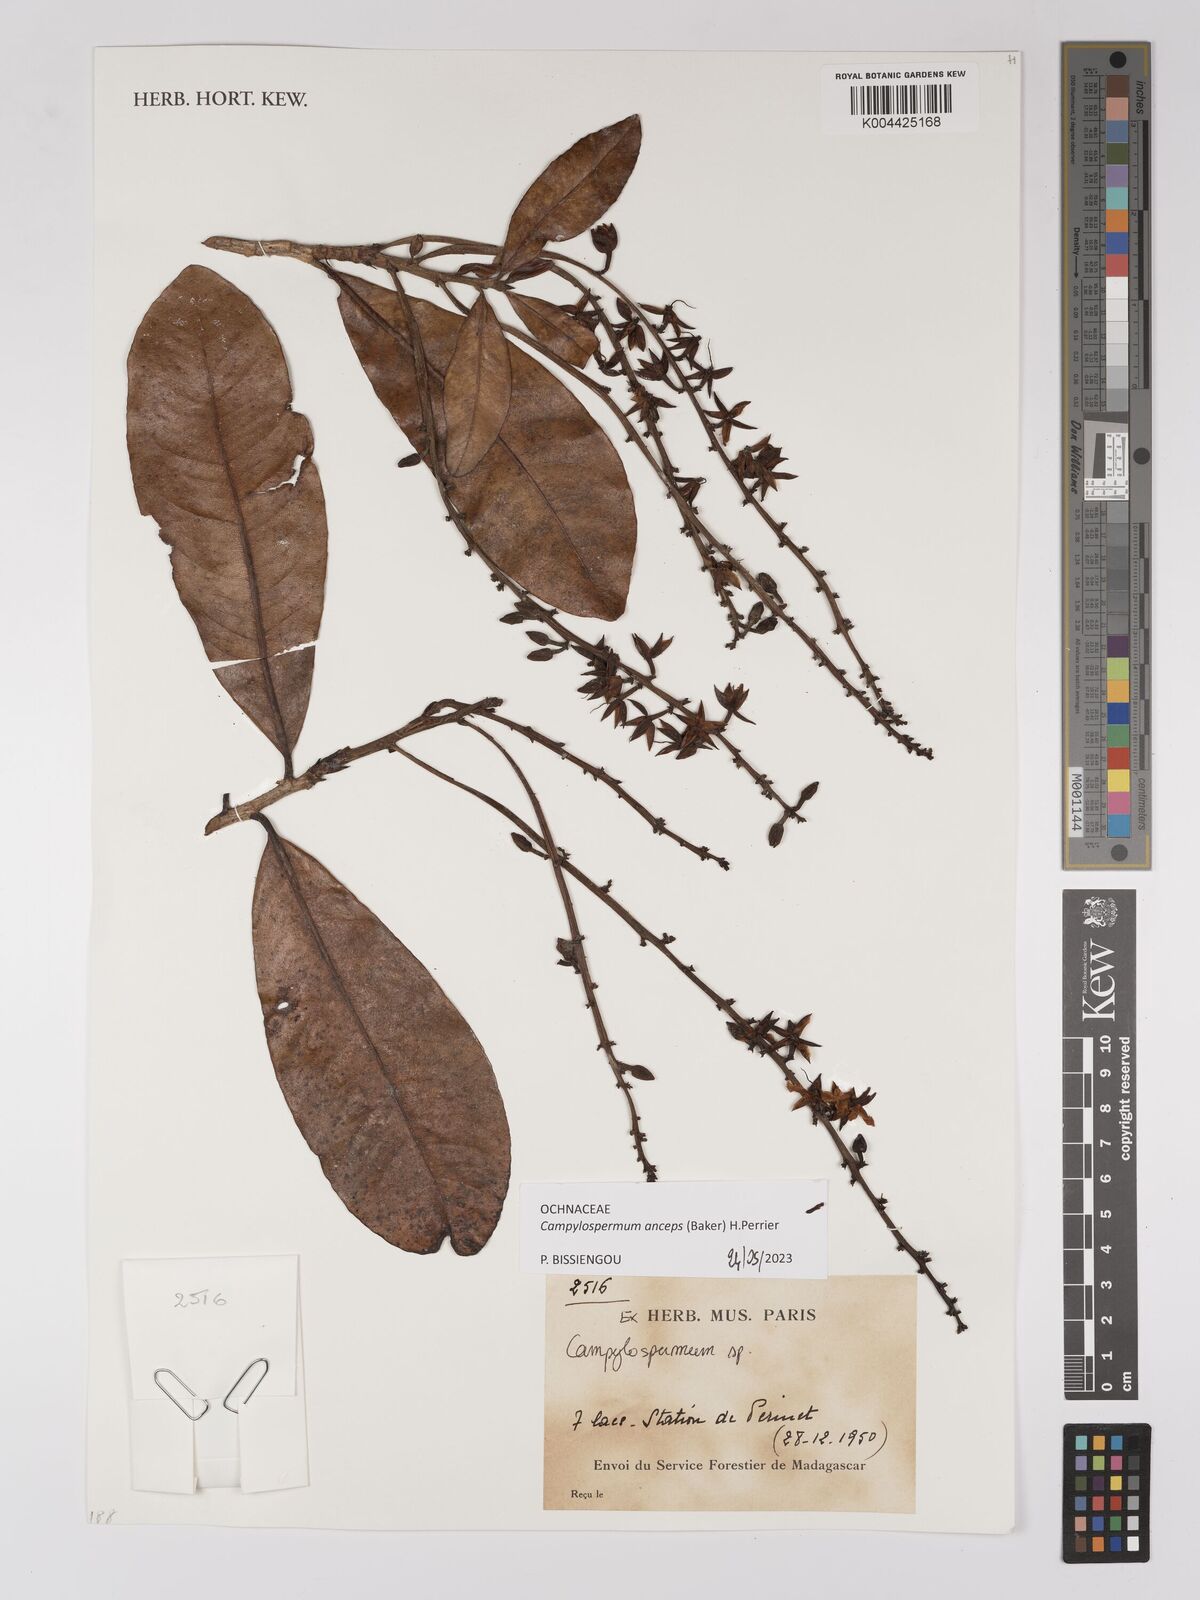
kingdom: Plantae
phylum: Tracheophyta
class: Magnoliopsida
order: Malpighiales
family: Ochnaceae
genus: Campylospermum
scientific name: Campylospermum
